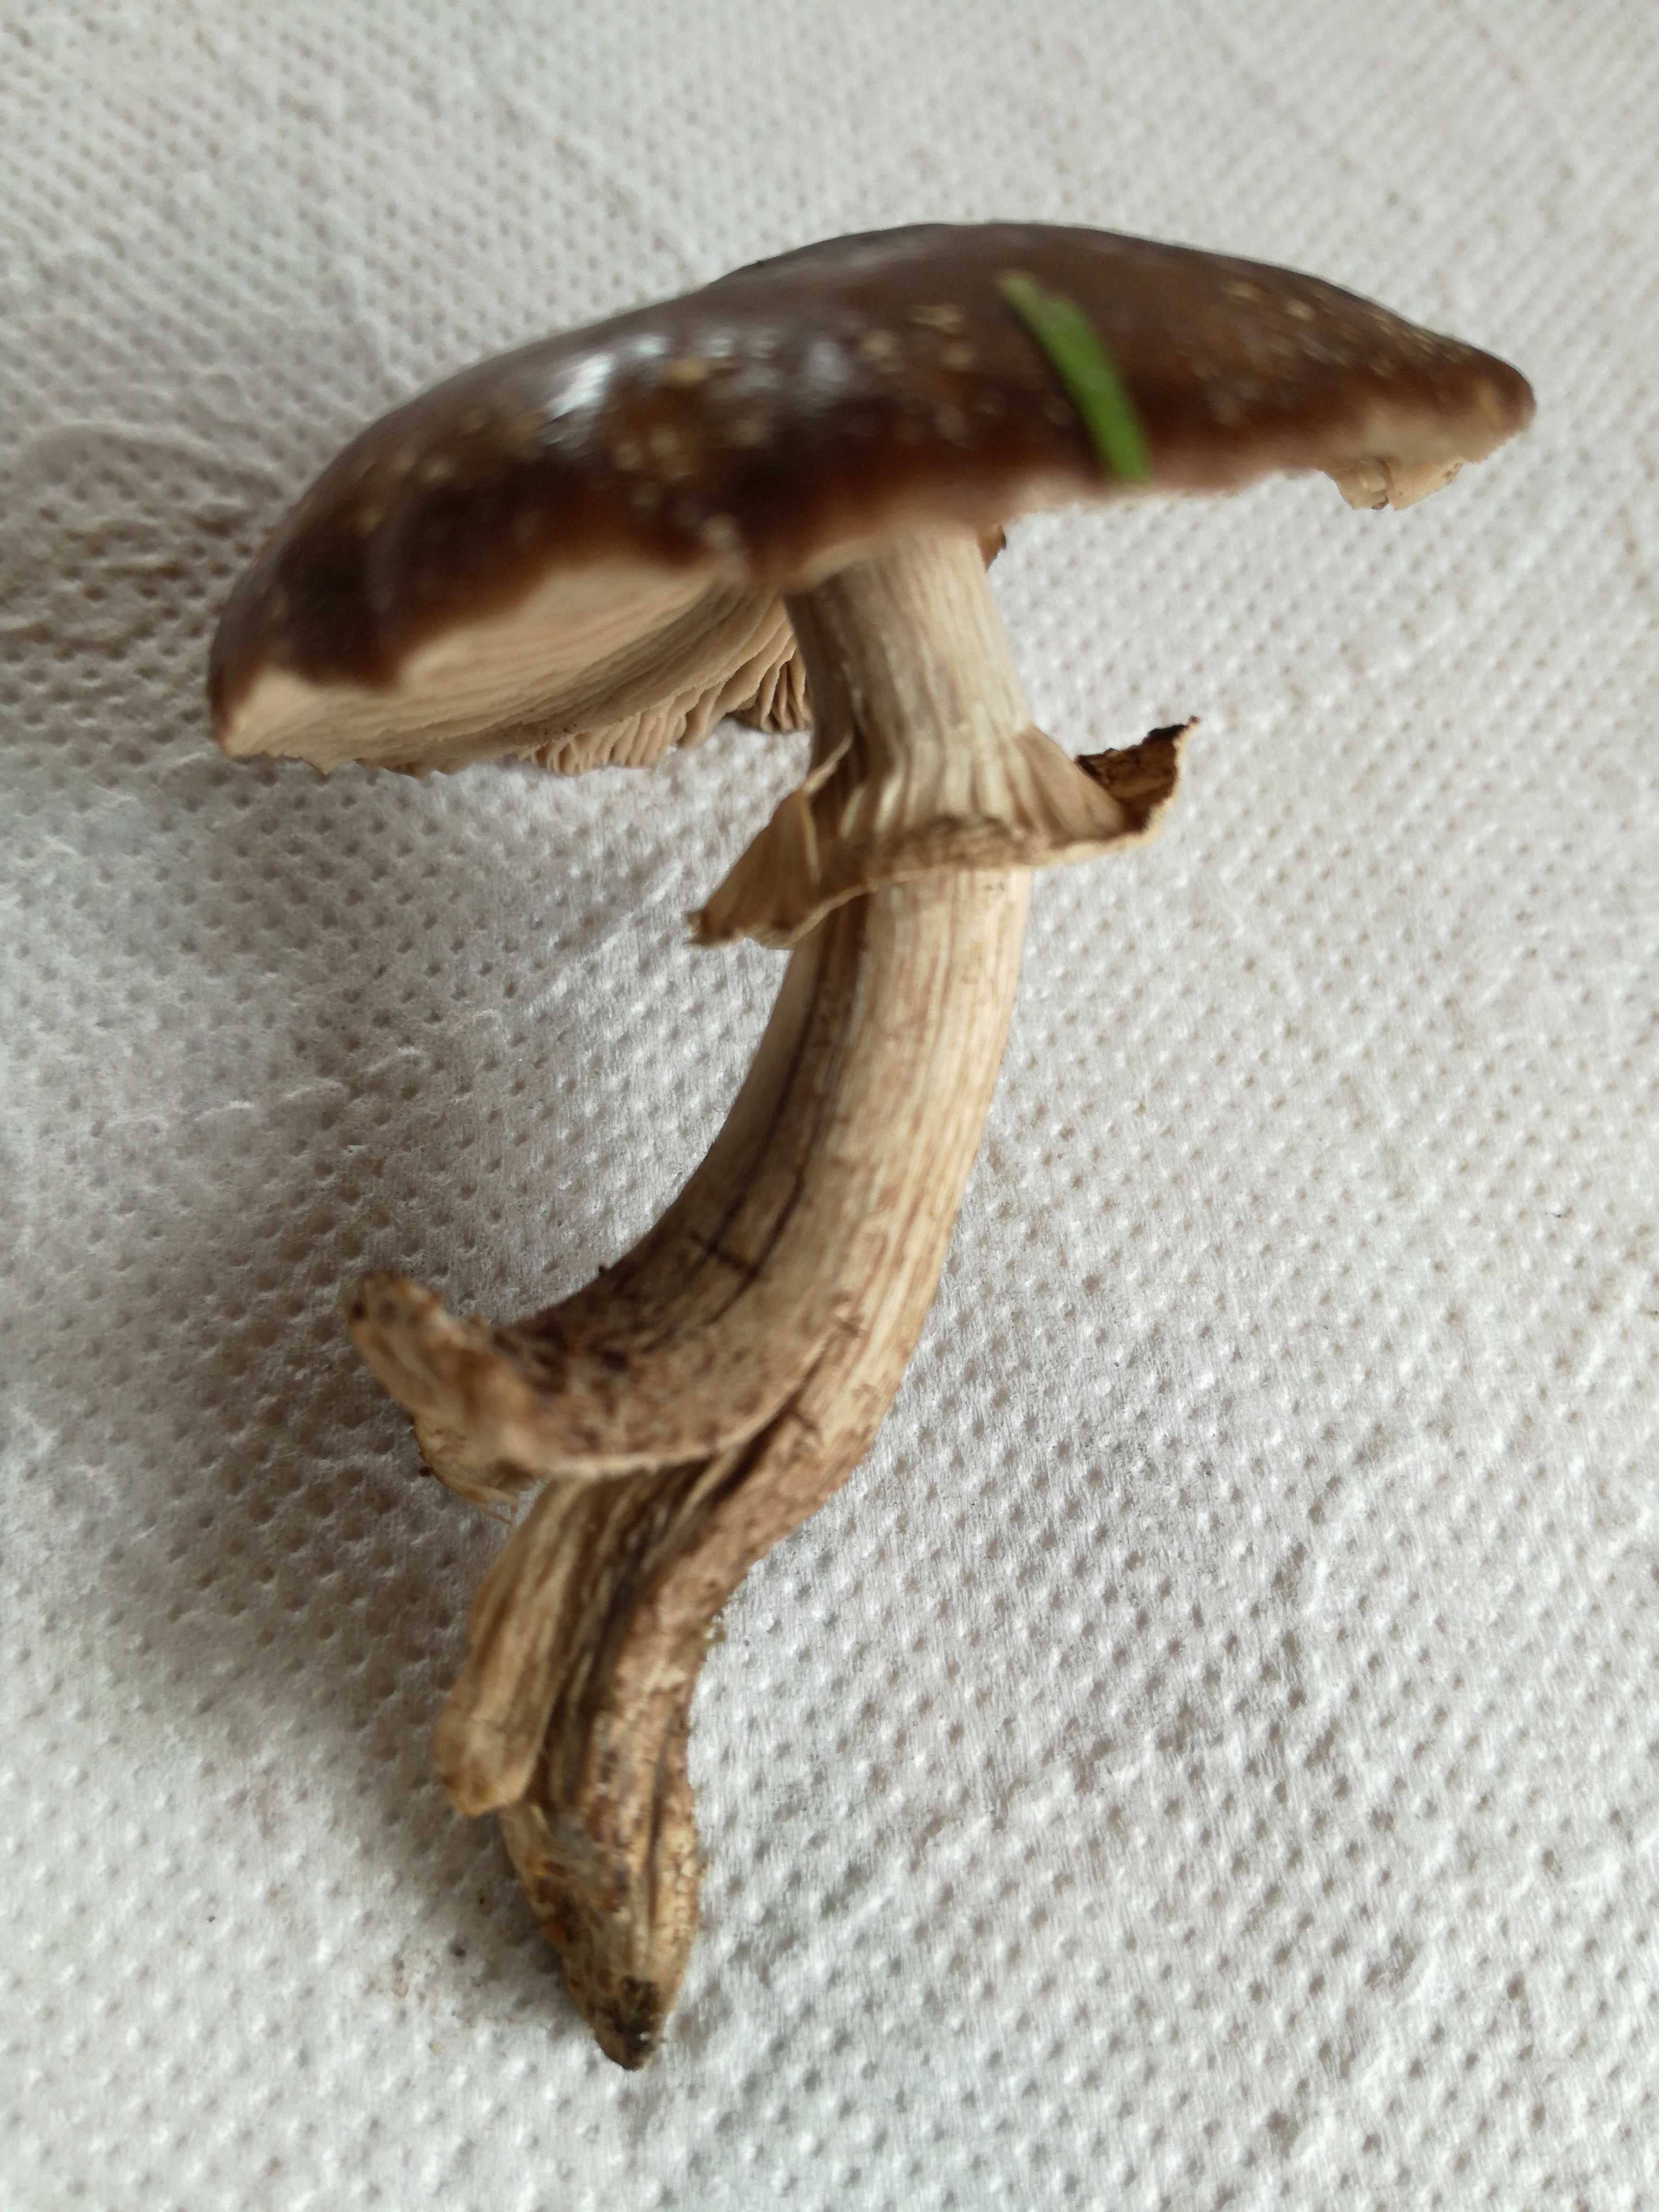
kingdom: Fungi
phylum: Basidiomycota
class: Agaricomycetes
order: Agaricales
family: Tubariaceae
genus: Cyclocybe
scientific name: Cyclocybe erebia
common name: mørk agerhat
